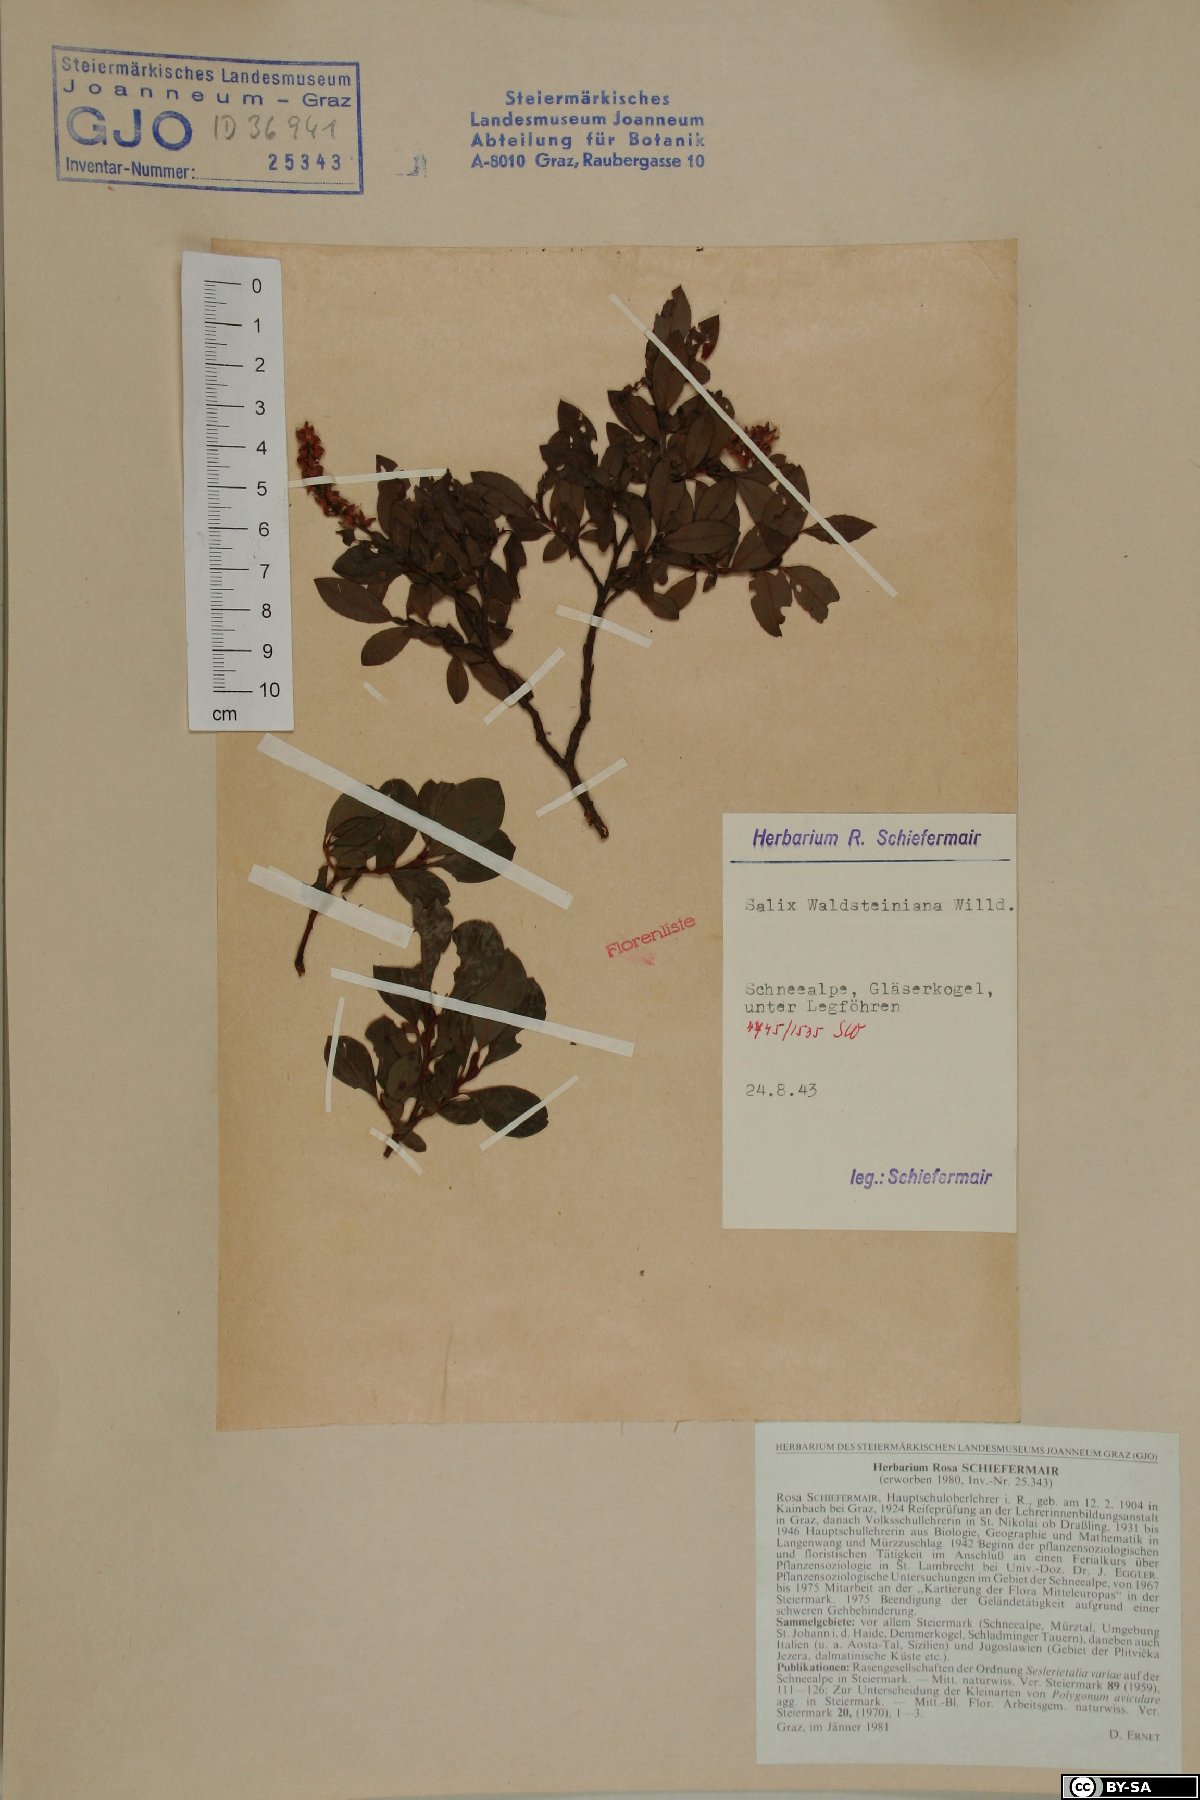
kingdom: Plantae
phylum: Tracheophyta
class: Magnoliopsida
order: Malpighiales
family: Salicaceae
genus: Salix
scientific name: Salix waldsteiniana
